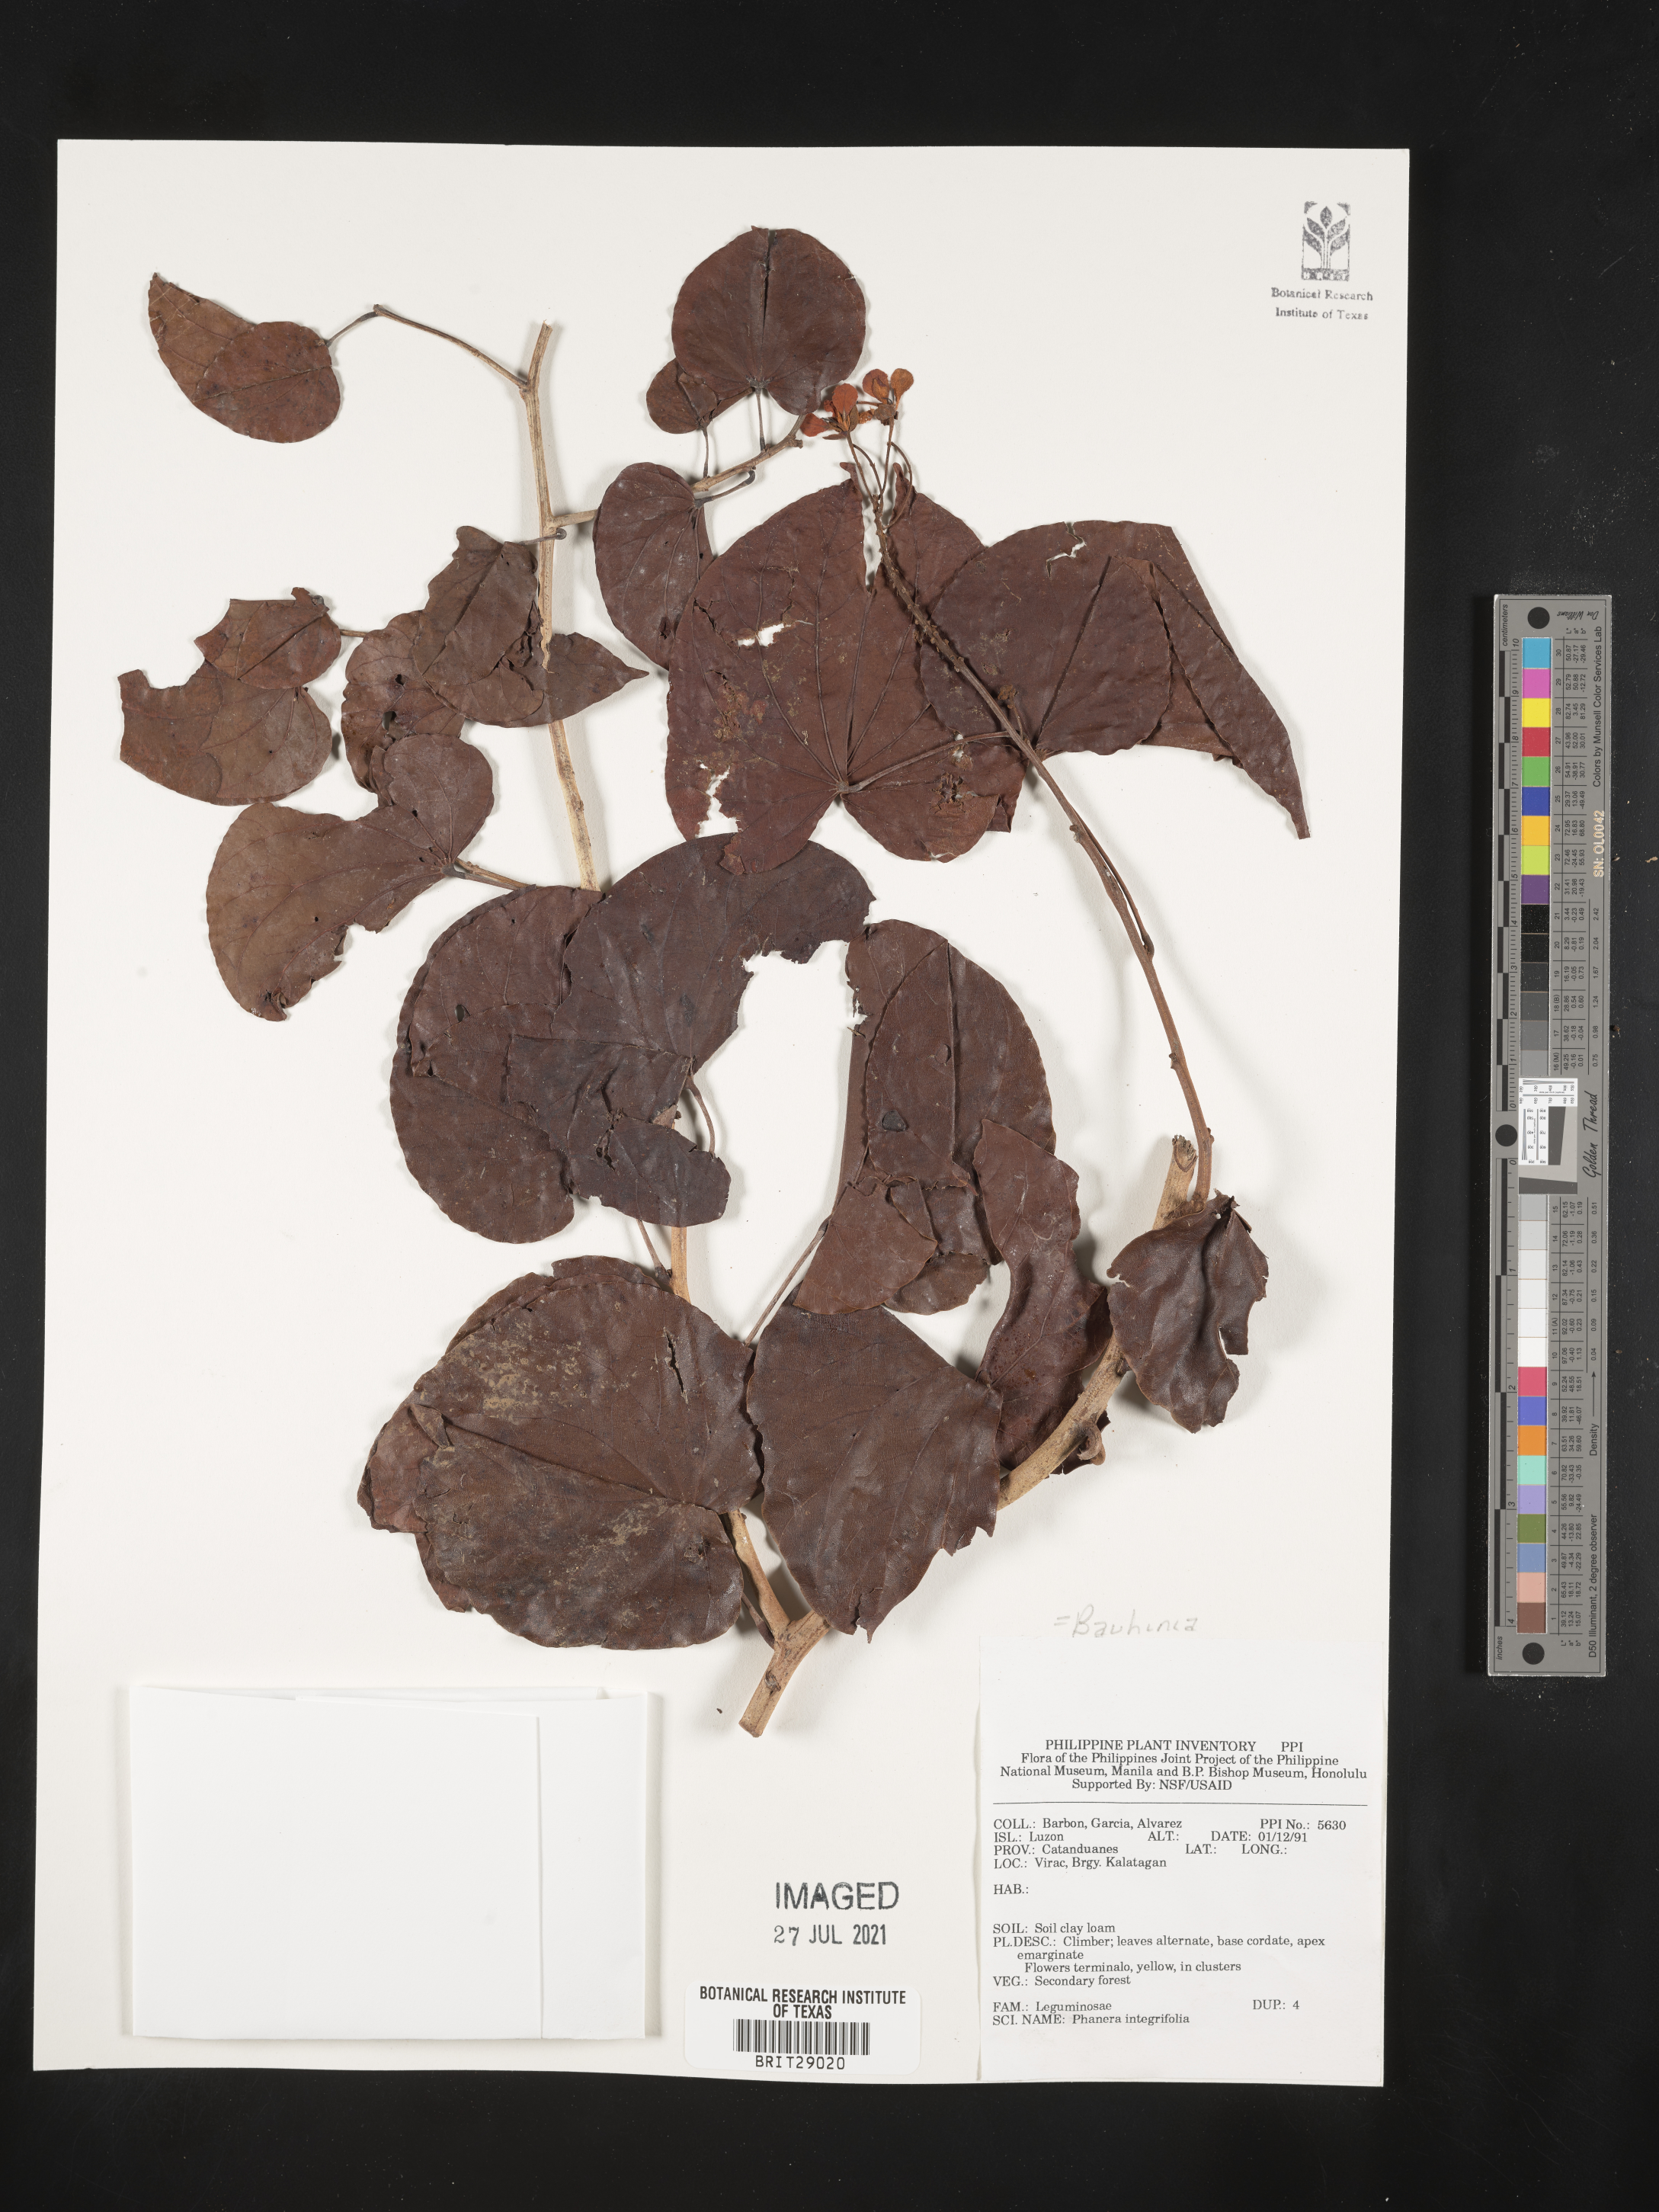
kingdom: Plantae
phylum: Tracheophyta
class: Magnoliopsida
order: Fabales
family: Fabaceae
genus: Phanera
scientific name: Phanera integrifolia
